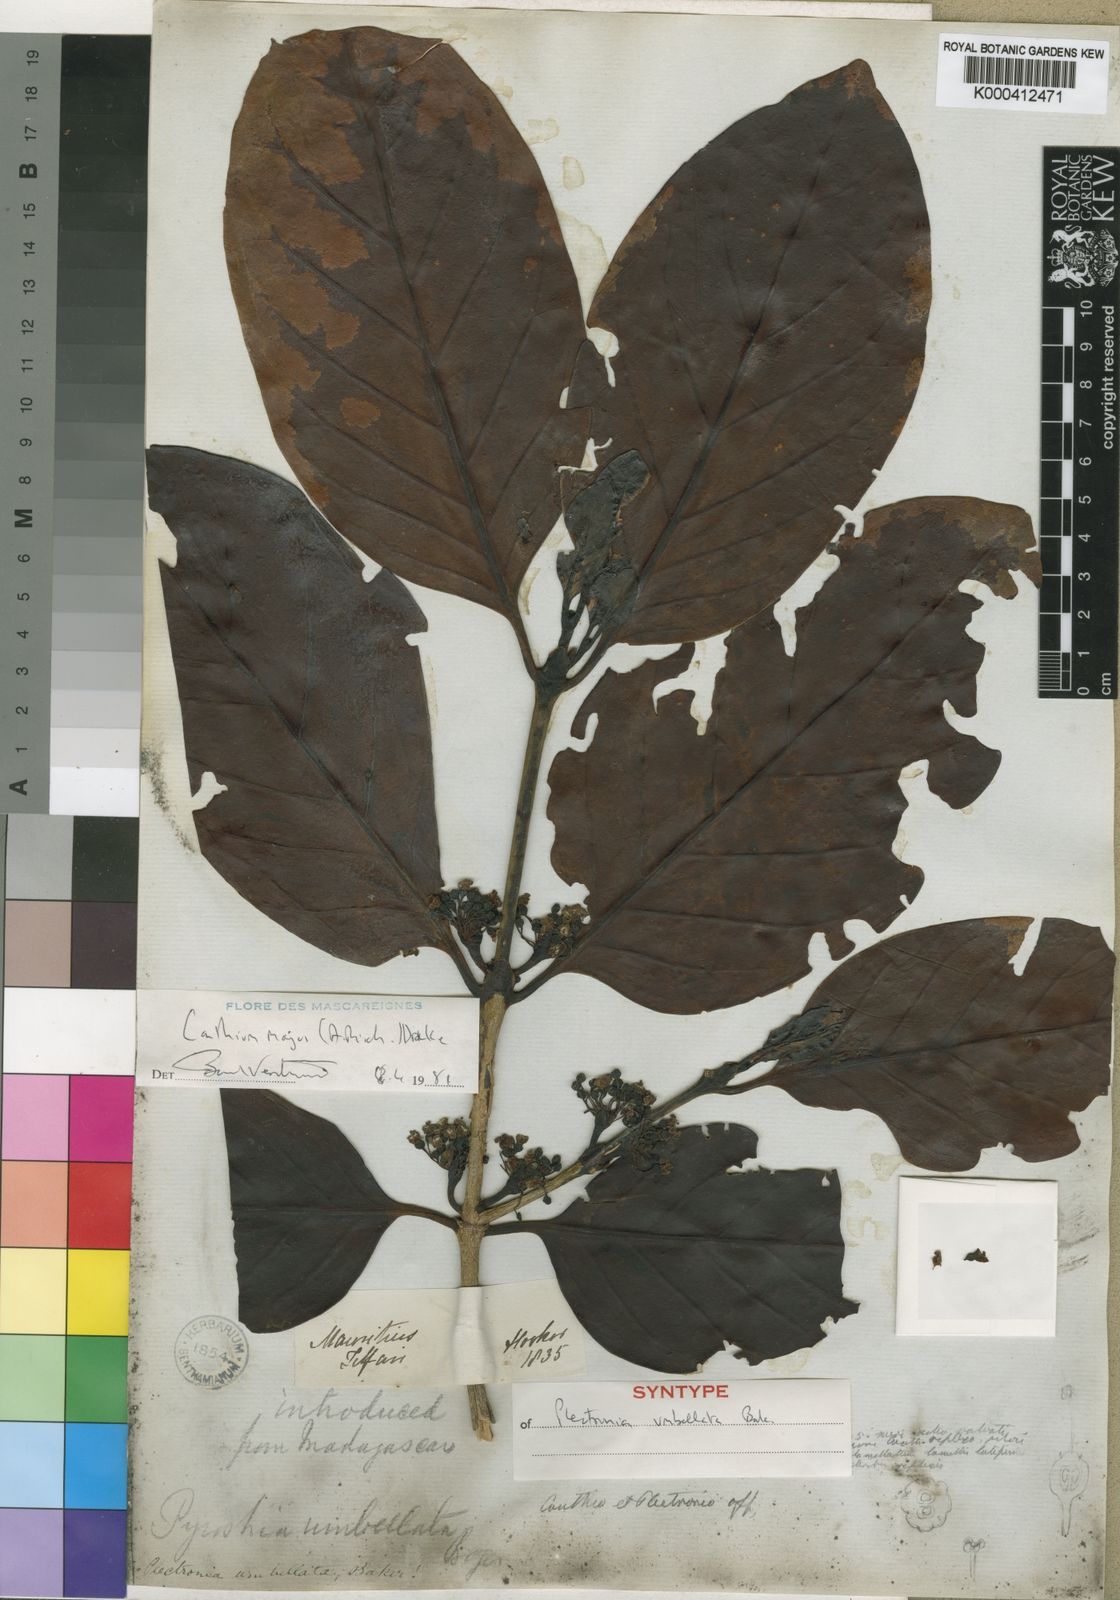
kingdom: Plantae
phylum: Tracheophyta
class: Magnoliopsida
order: Gentianales
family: Rubiaceae
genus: Pyrostria
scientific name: Pyrostria
